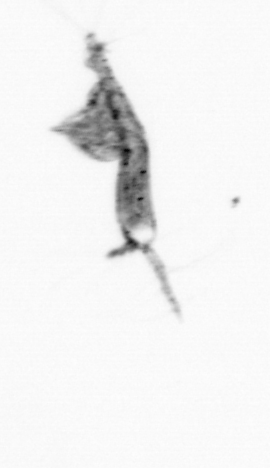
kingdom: Animalia
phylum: Arthropoda
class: Copepoda
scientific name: Copepoda
